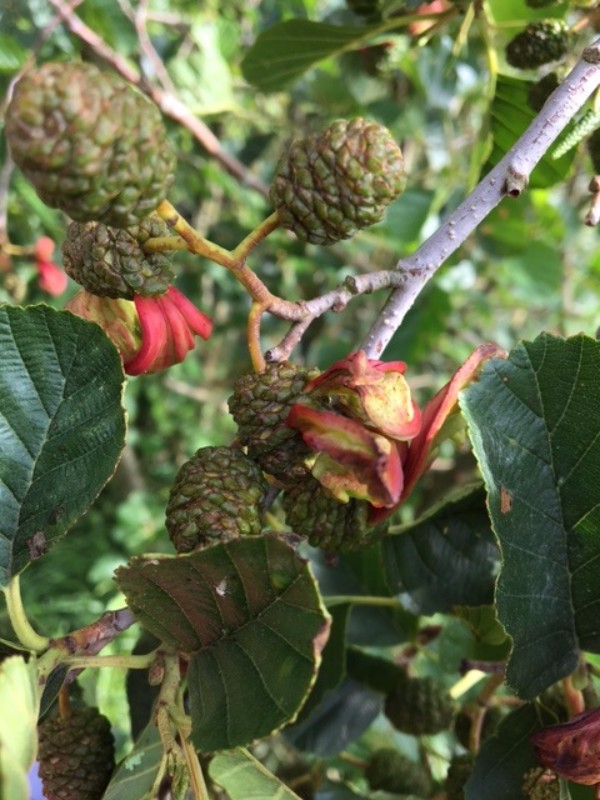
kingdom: Fungi
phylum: Ascomycota
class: Taphrinomycetes
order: Taphrinales
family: Taphrinaceae
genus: Taphrina
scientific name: Taphrina alni
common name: Alder tongue
